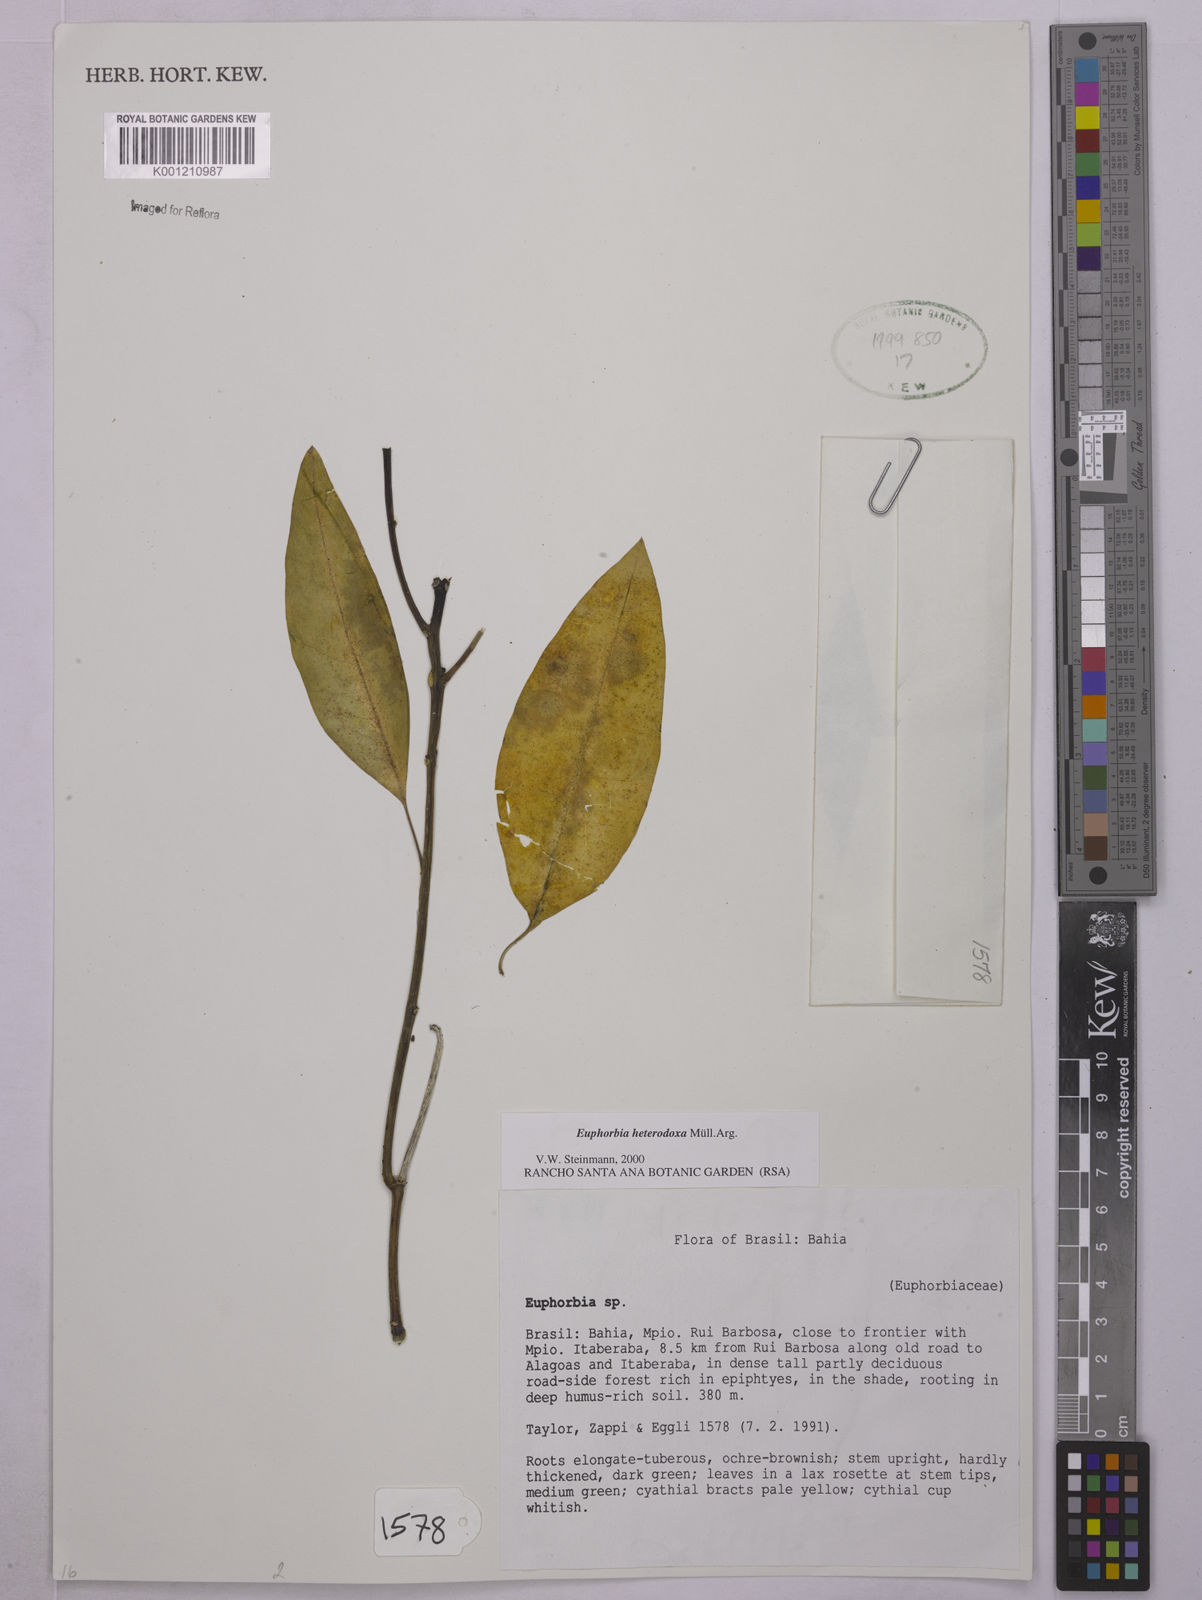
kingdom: Plantae
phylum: Tracheophyta
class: Magnoliopsida
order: Malpighiales
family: Euphorbiaceae
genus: Euphorbia
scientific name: Euphorbia
